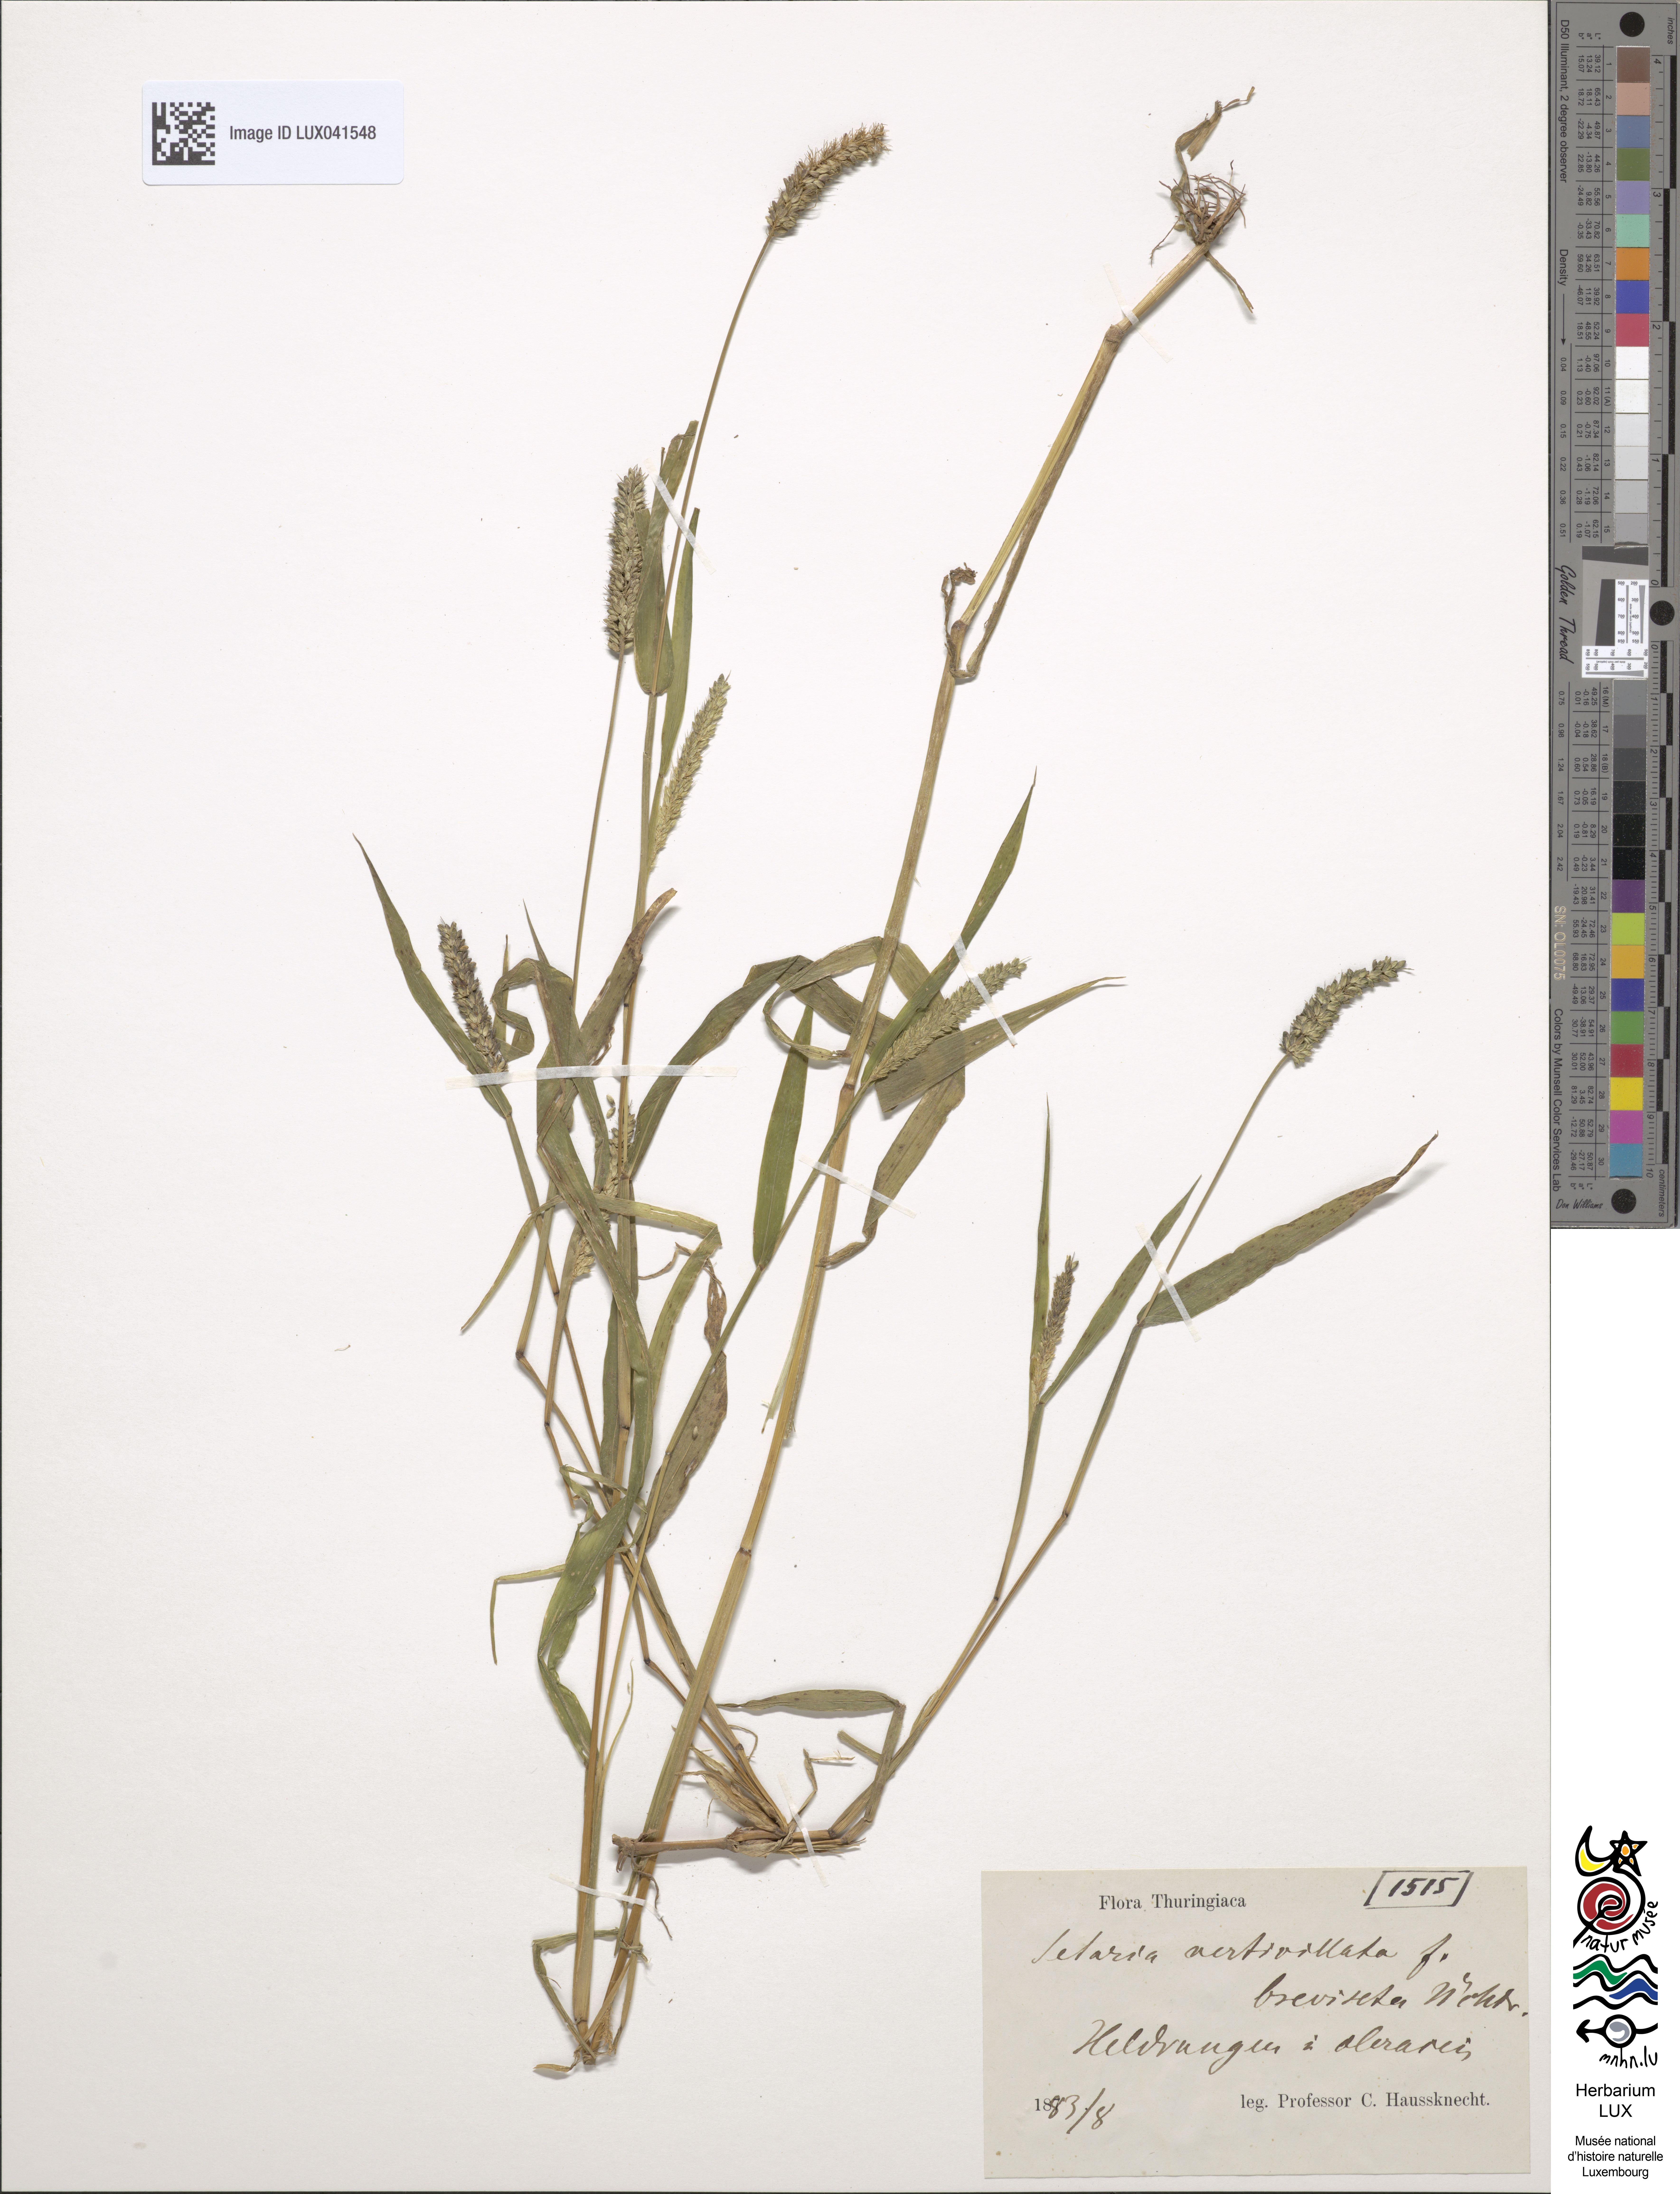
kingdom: Plantae
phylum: Tracheophyta
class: Liliopsida
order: Poales
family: Poaceae
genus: Setaria
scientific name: Setaria verticillata
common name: Hooked bristlegrass
